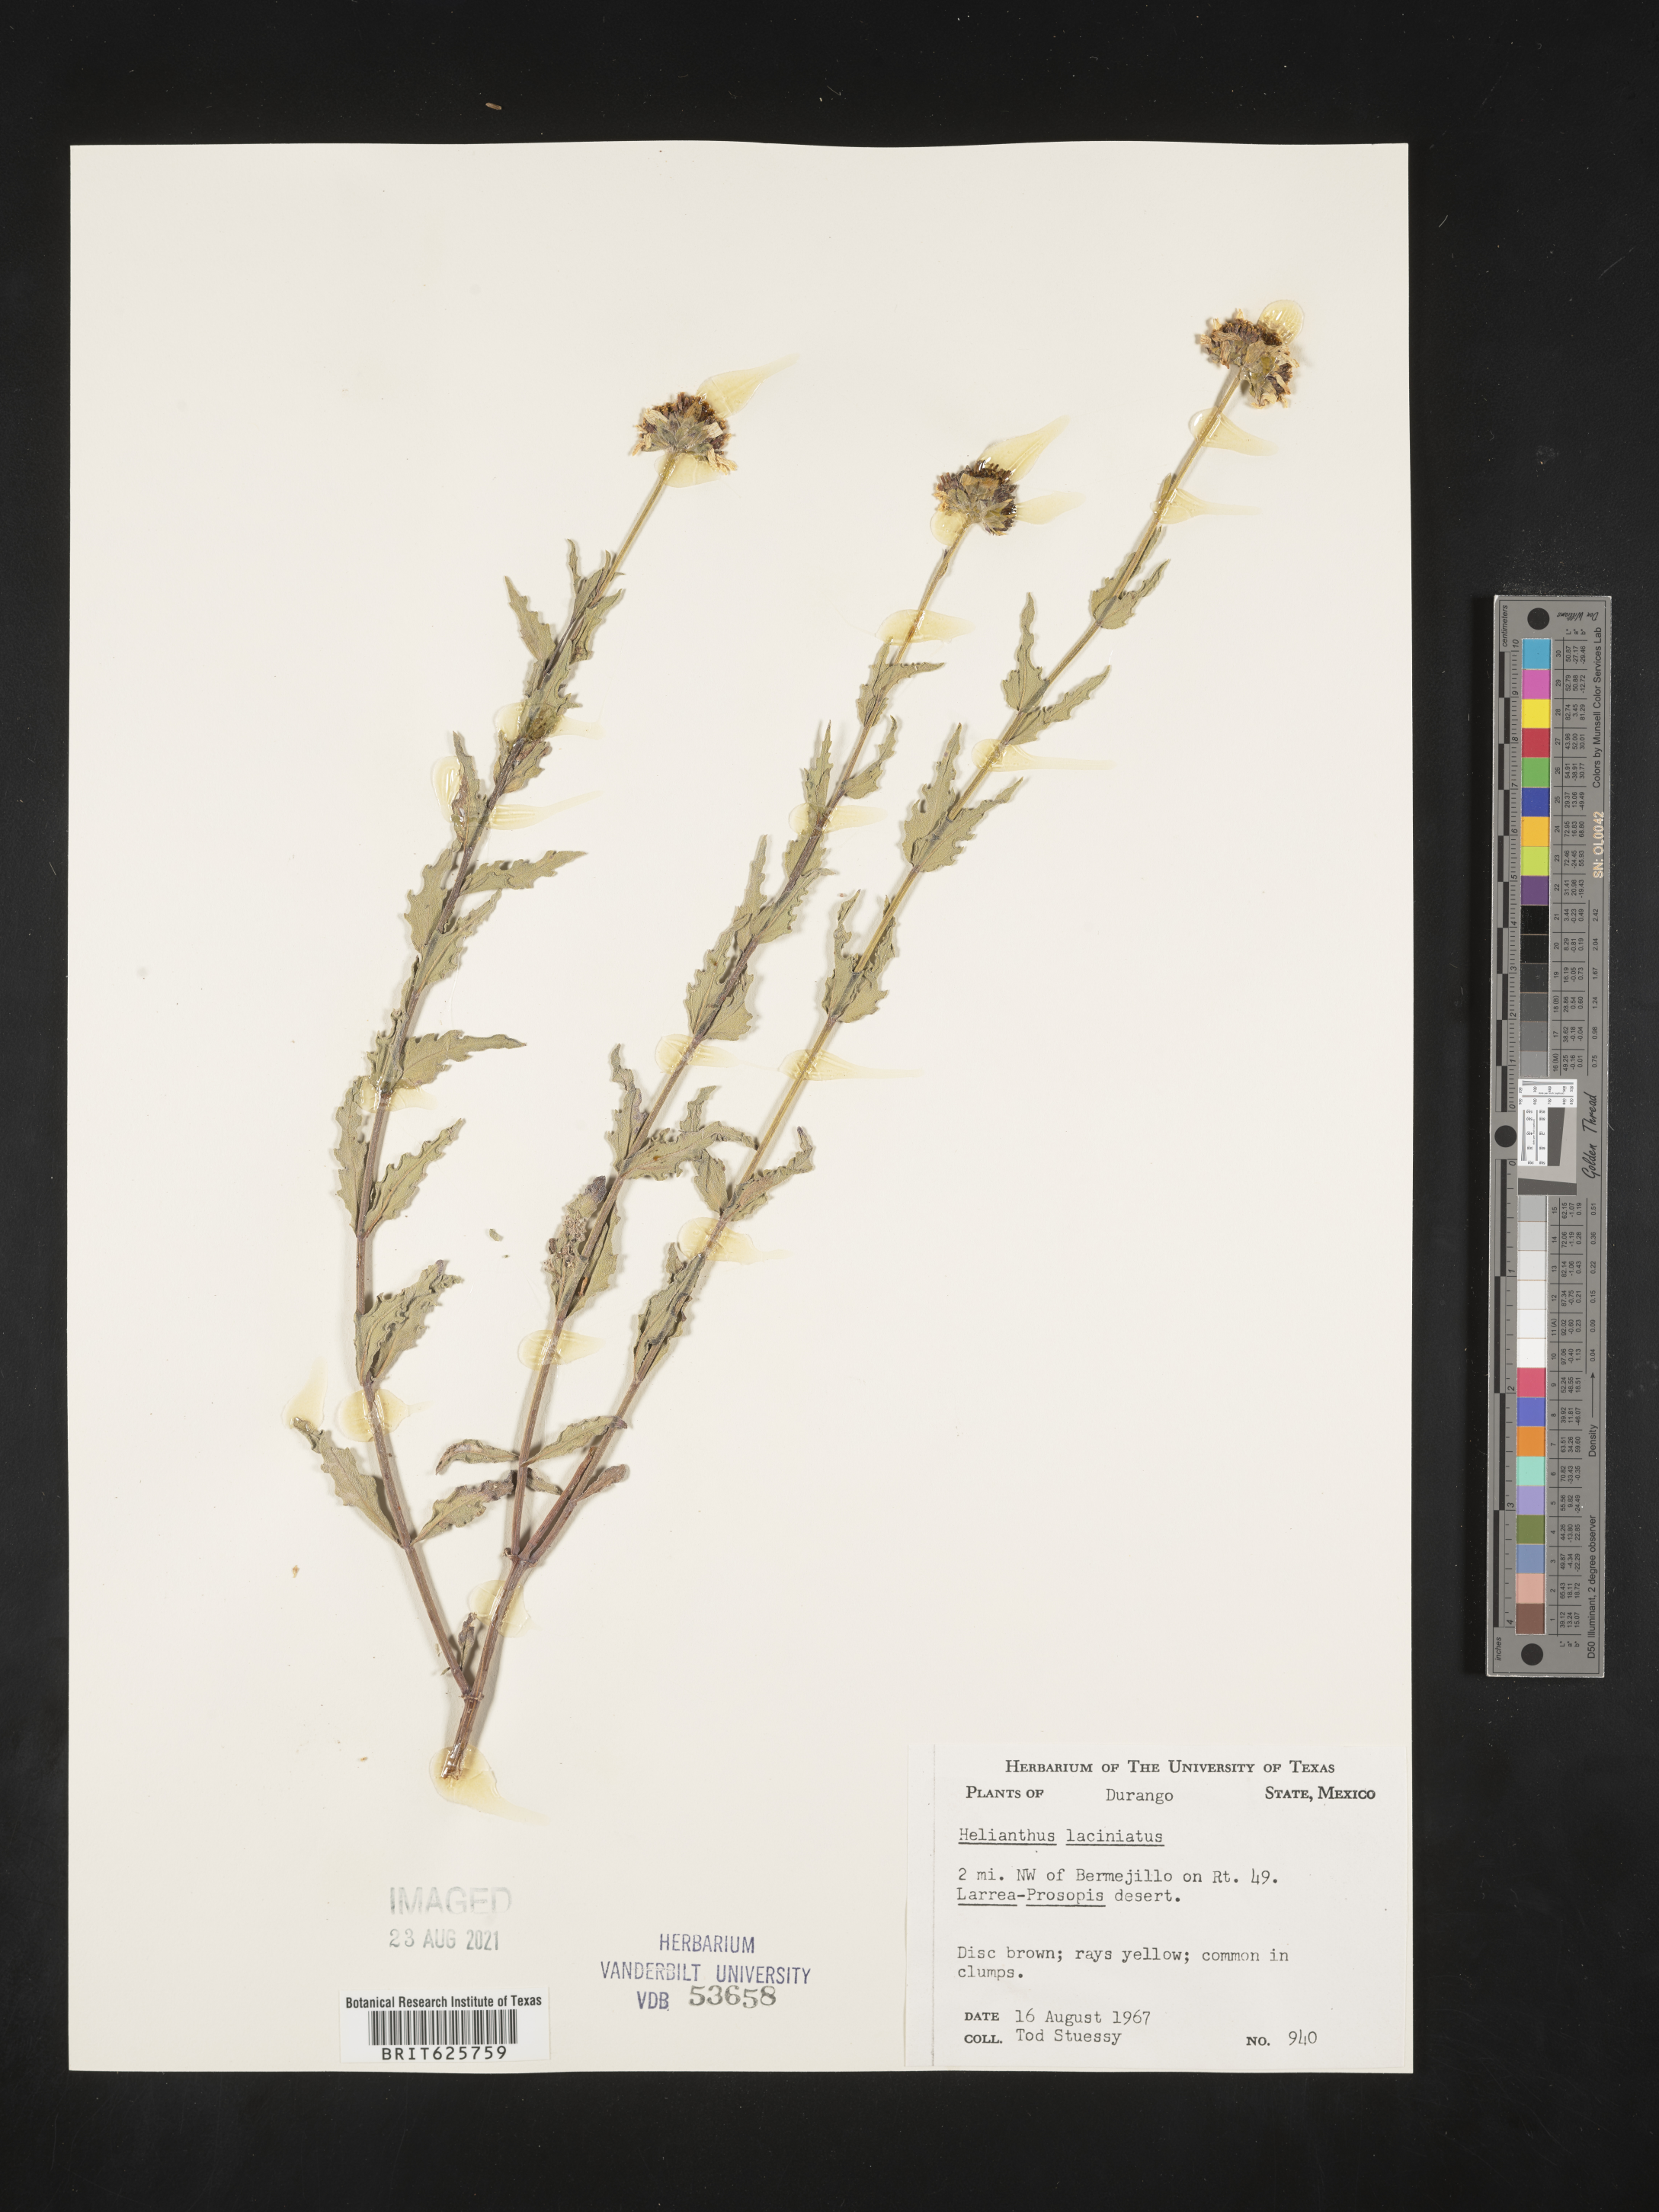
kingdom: Plantae
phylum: Tracheophyta
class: Magnoliopsida
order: Asterales
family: Asteraceae
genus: Helianthus
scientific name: Helianthus
